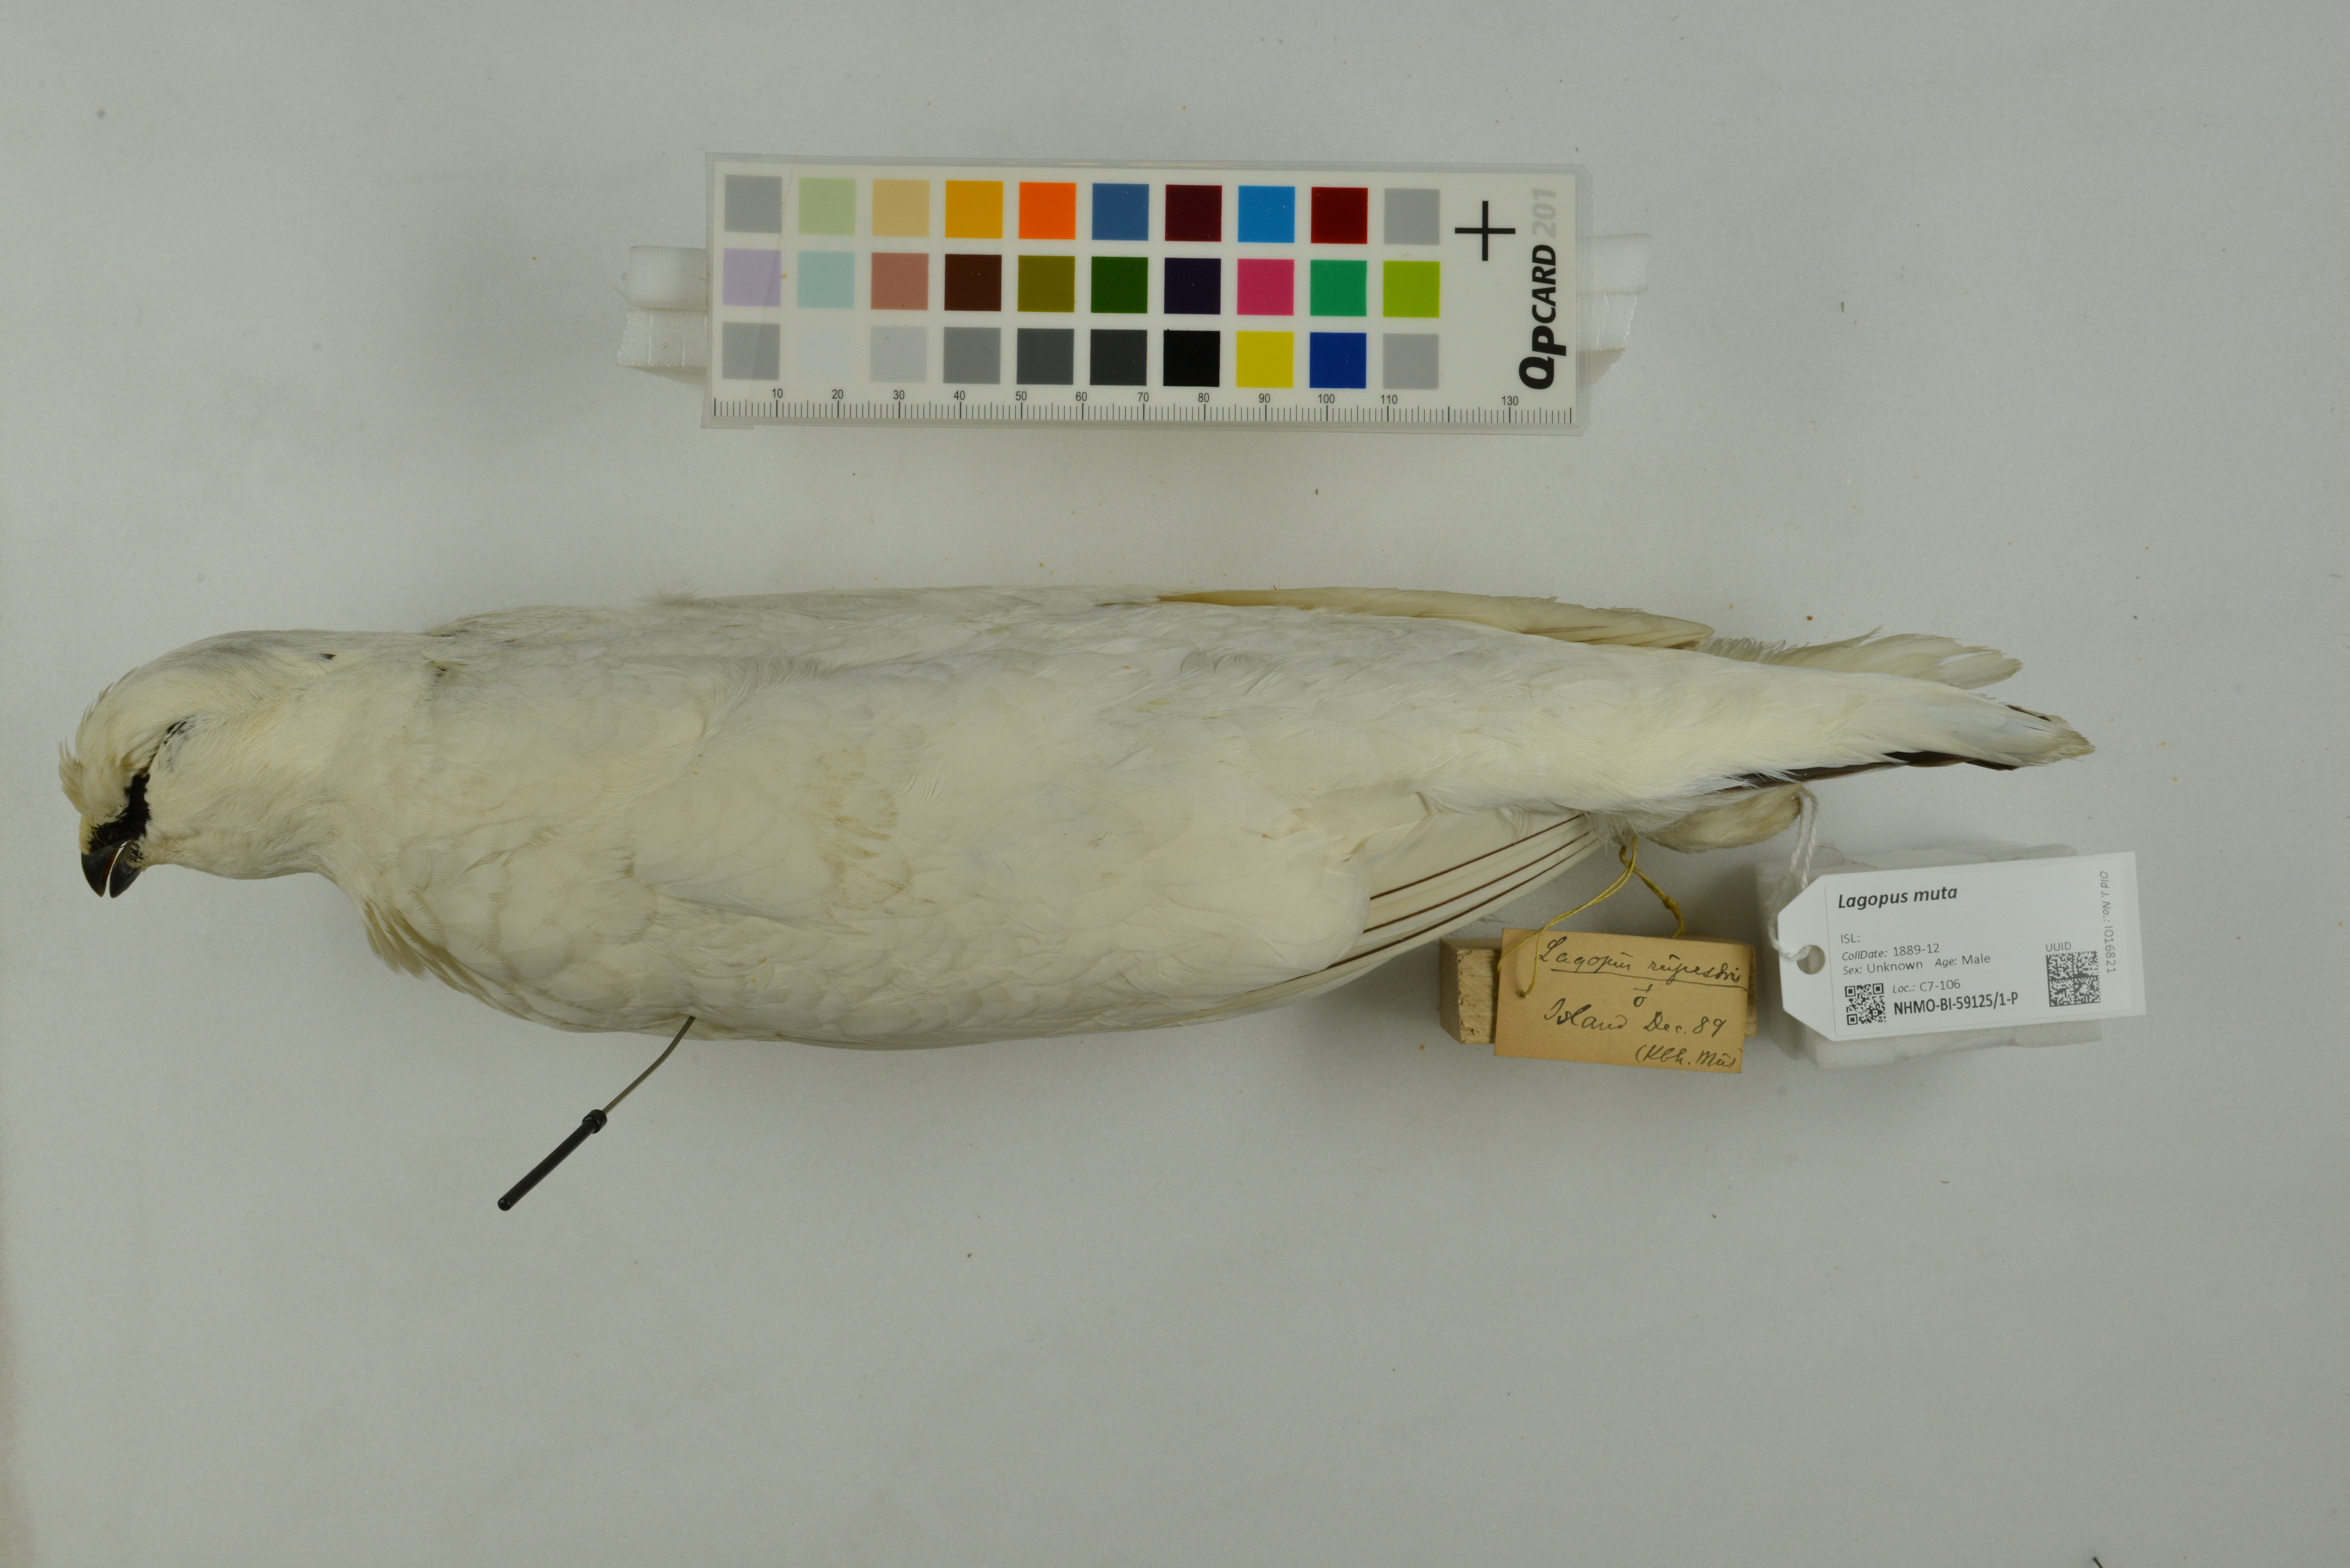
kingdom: Animalia
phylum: Chordata
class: Aves
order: Galliformes
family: Phasianidae
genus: Lagopus
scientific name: Lagopus muta
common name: Rock ptarmigan
